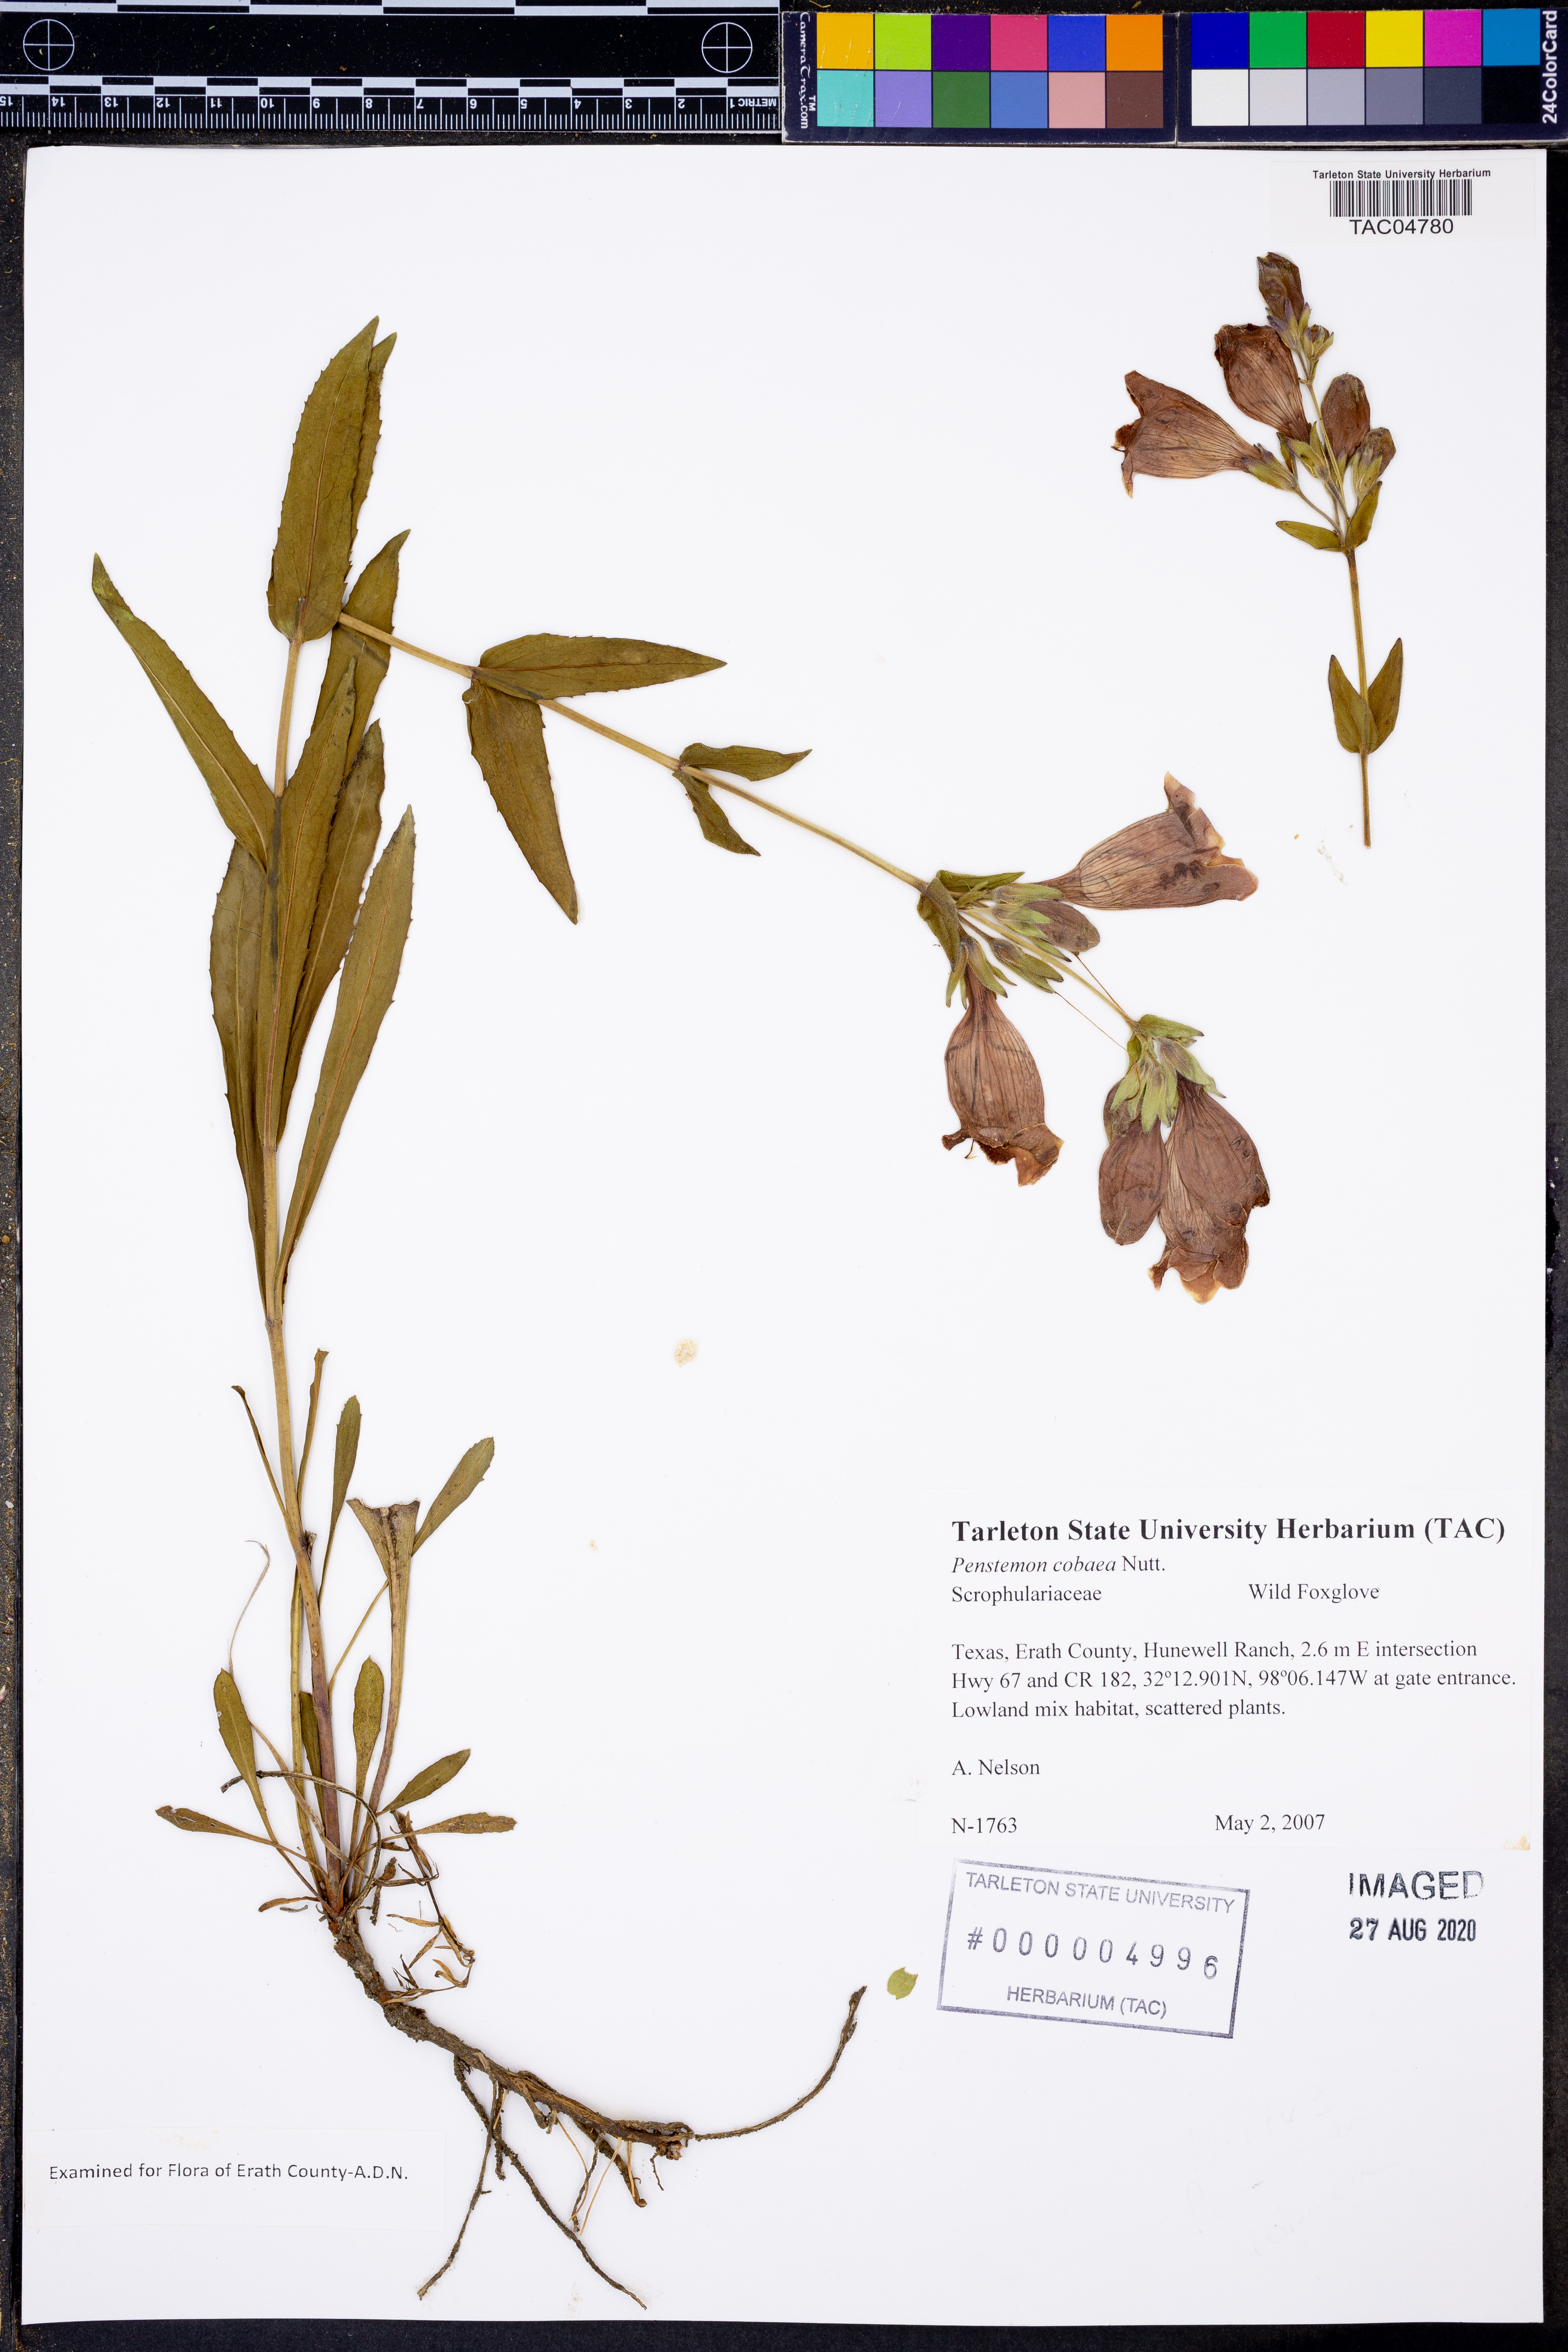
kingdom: Plantae
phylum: Tracheophyta
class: Magnoliopsida
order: Lamiales
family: Plantaginaceae
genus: Penstemon
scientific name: Penstemon cobaea
